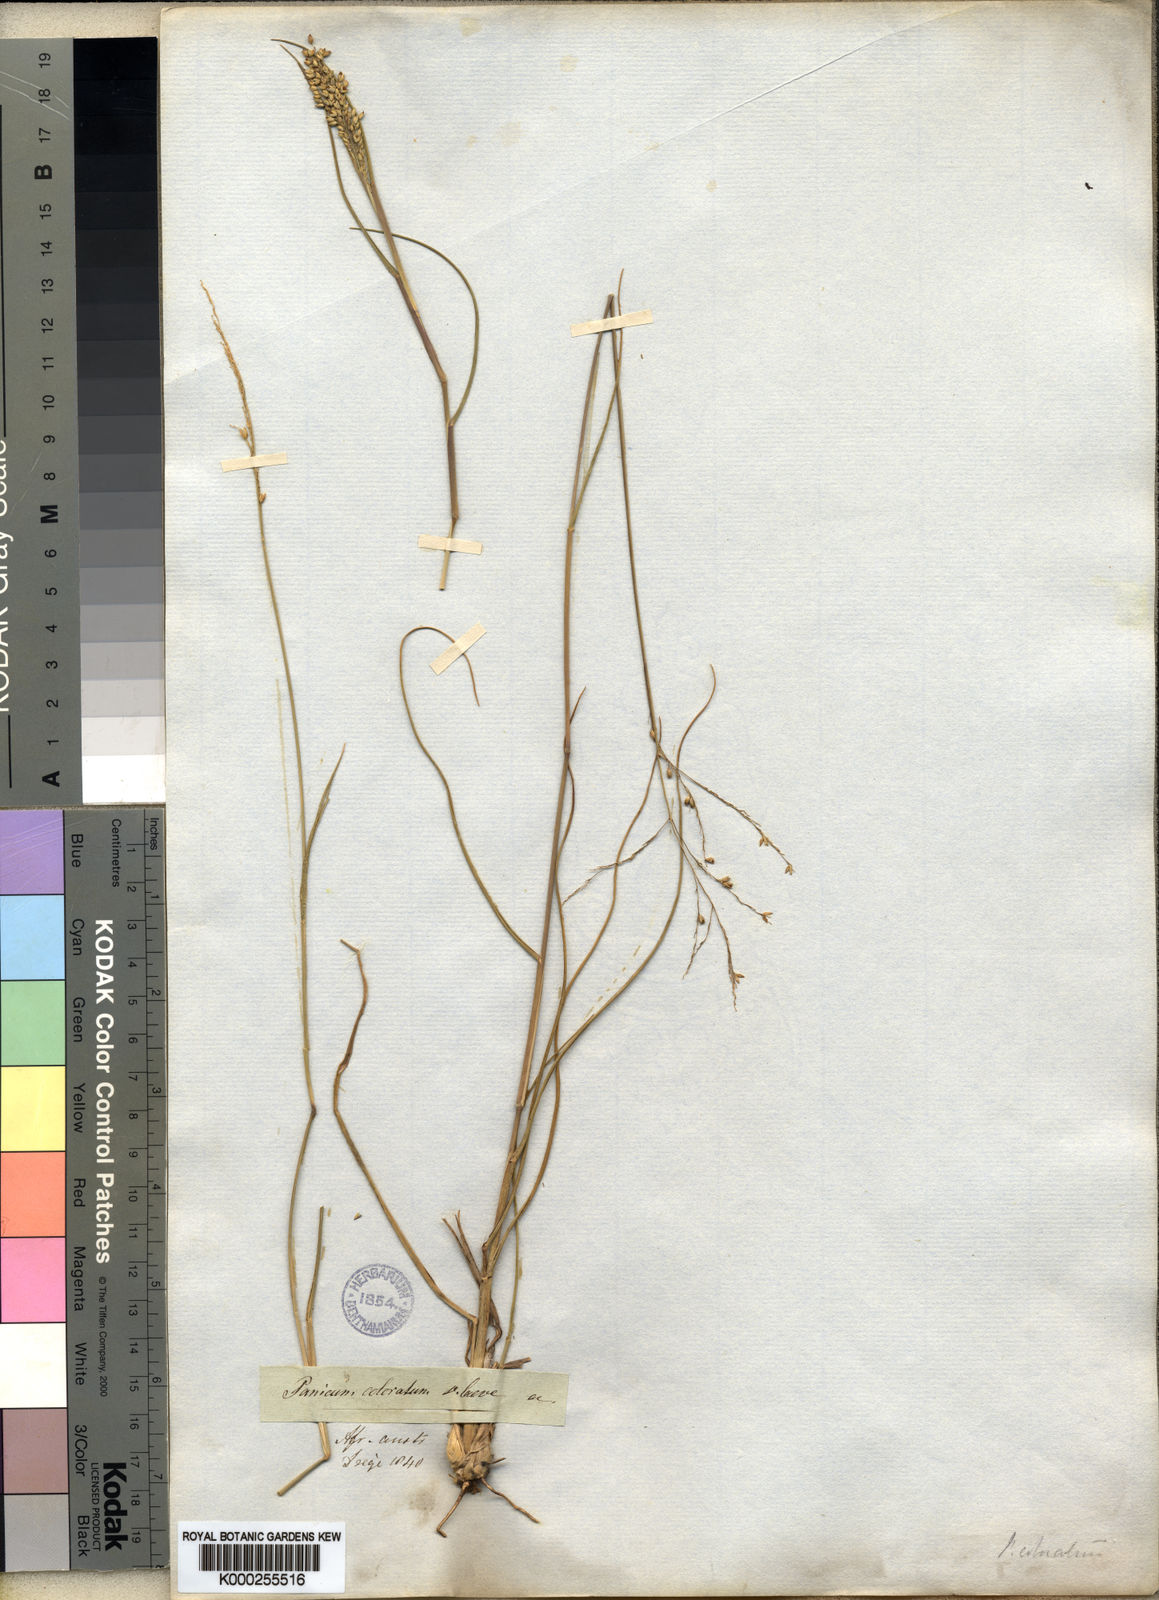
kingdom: Plantae
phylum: Tracheophyta
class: Liliopsida
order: Poales
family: Poaceae
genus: Panicum
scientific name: Panicum stapfianum
